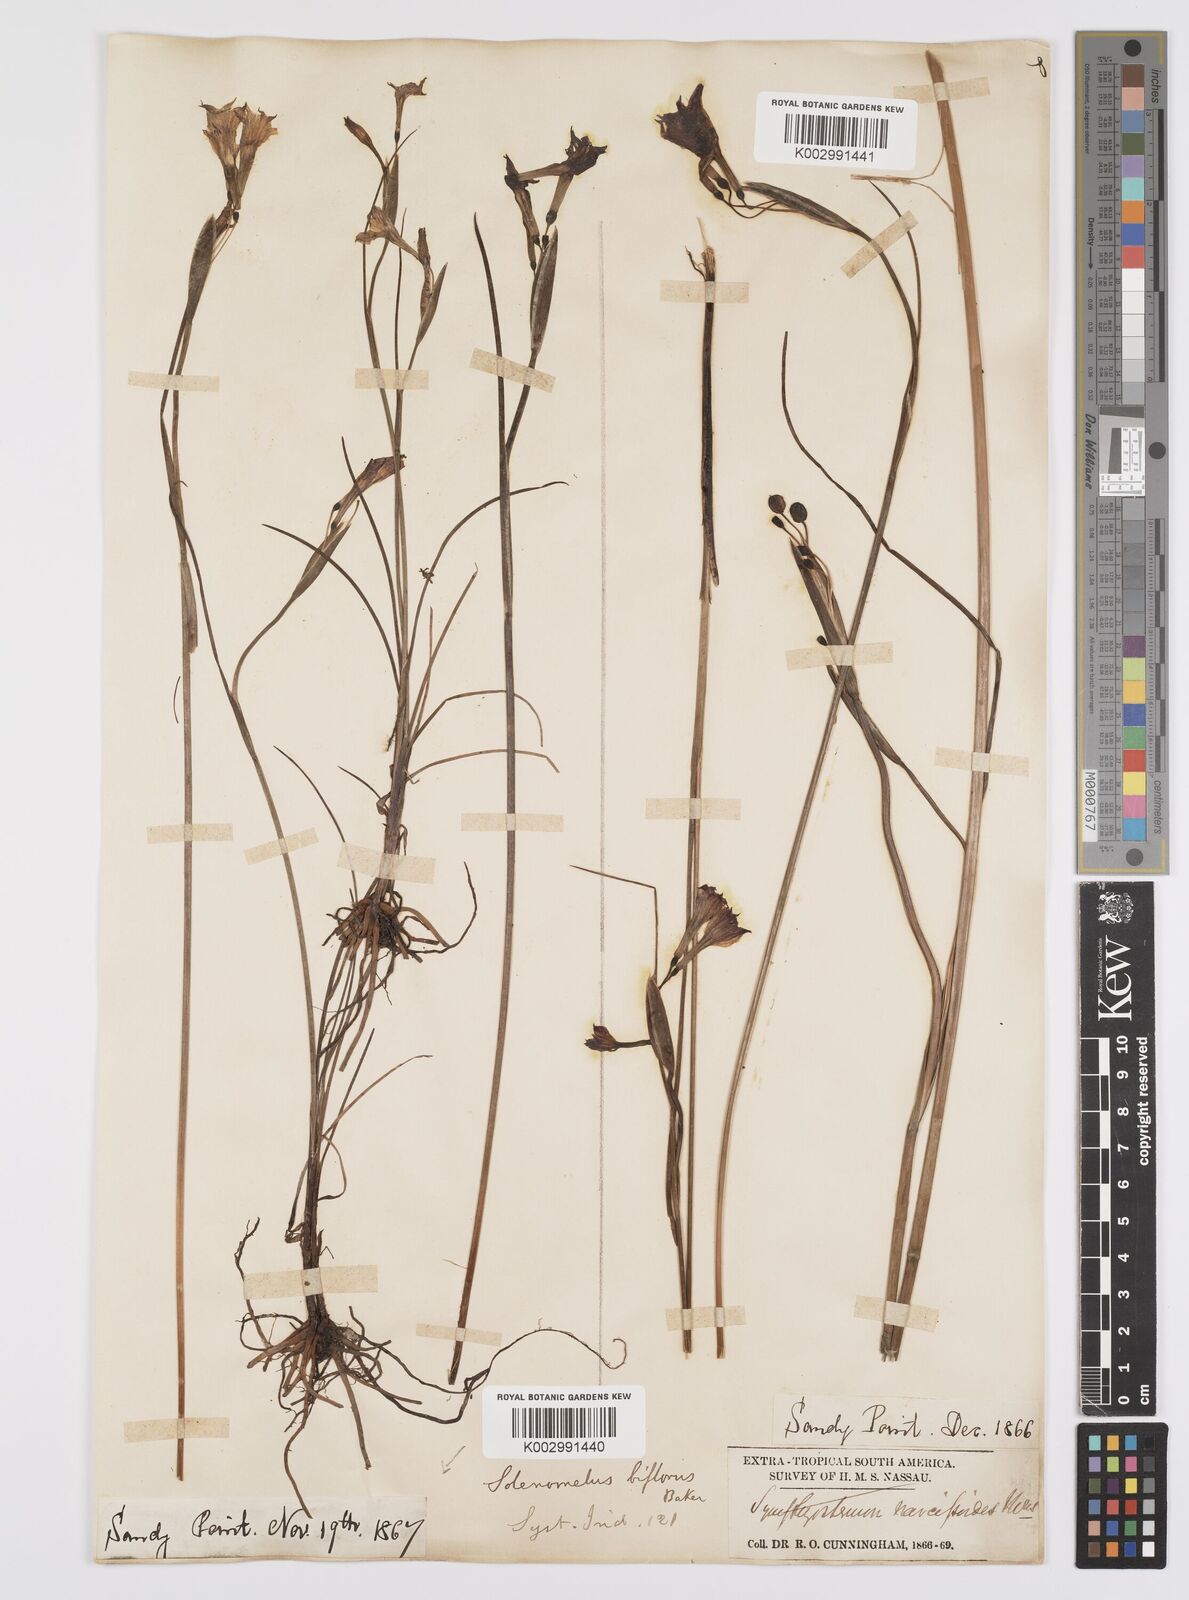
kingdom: Plantae
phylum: Tracheophyta
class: Liliopsida
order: Asparagales
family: Iridaceae
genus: Olsynium
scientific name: Olsynium biflorum
